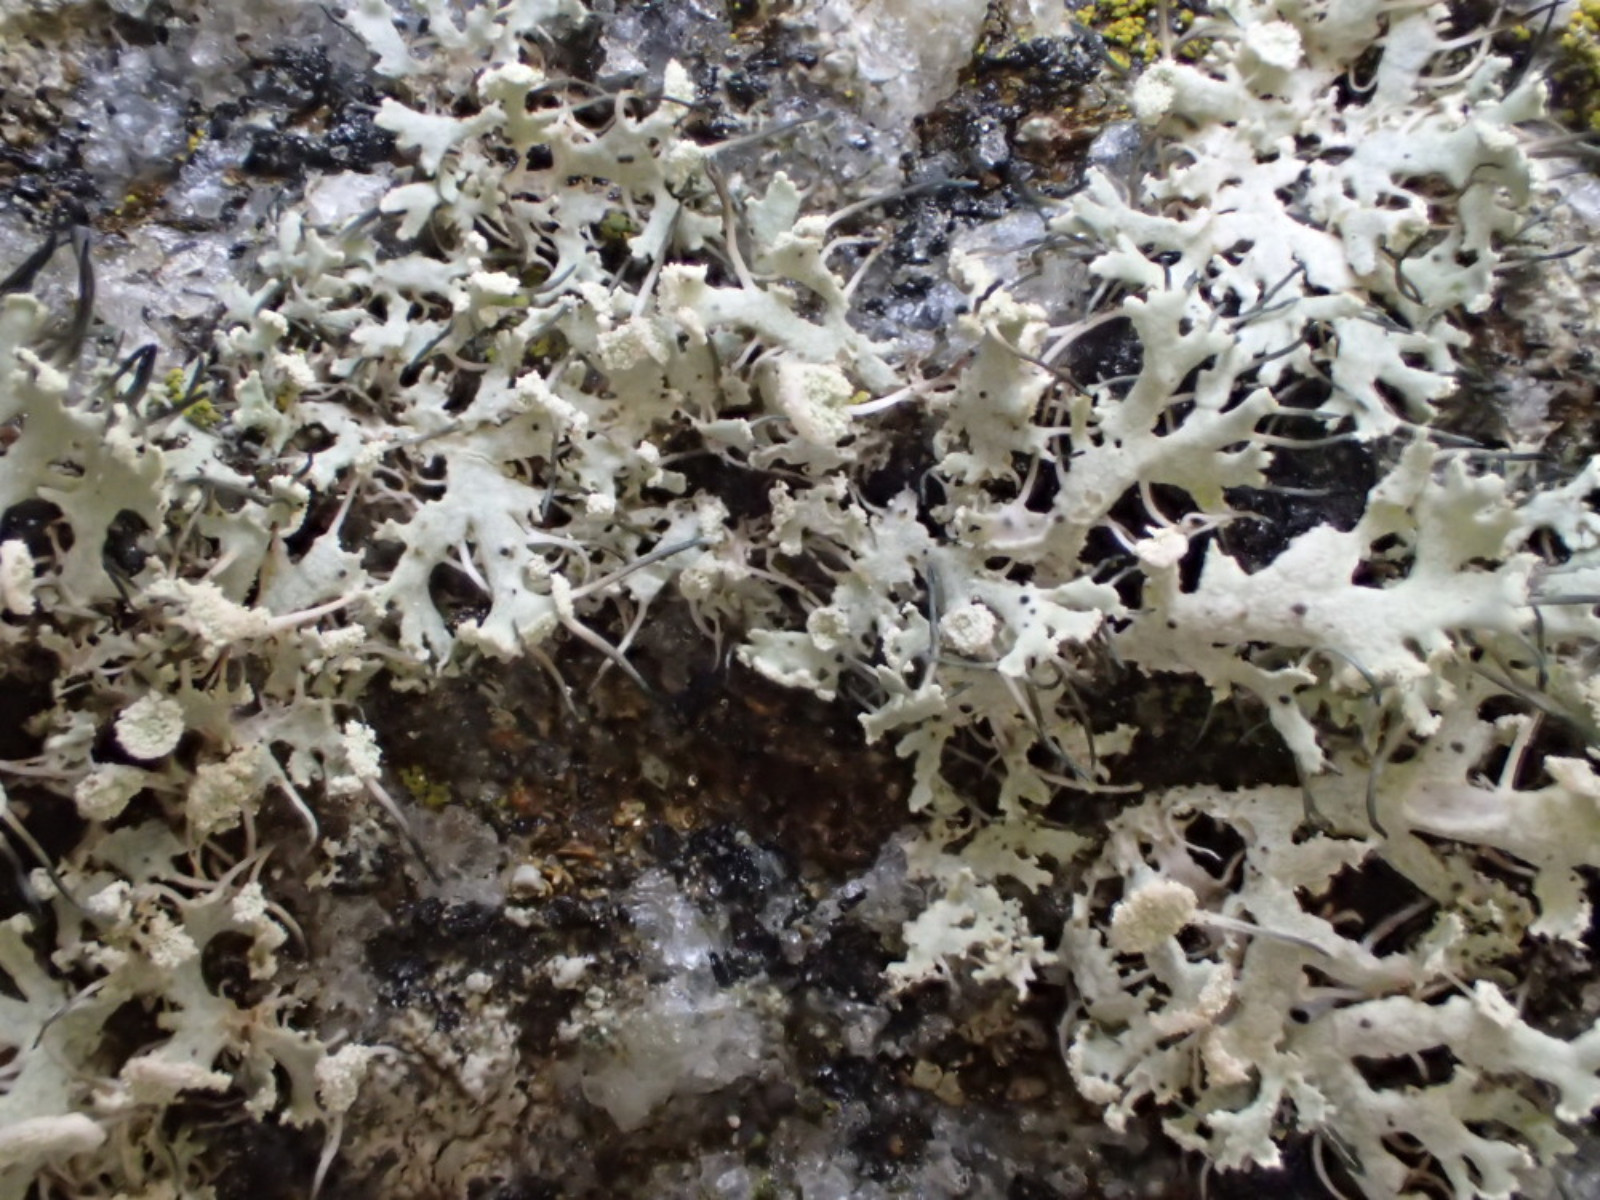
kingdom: Fungi
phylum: Ascomycota
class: Lecanoromycetes
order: Caliciales
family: Physciaceae
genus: Physcia
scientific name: Physcia tenella
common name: spæd rosetlav
